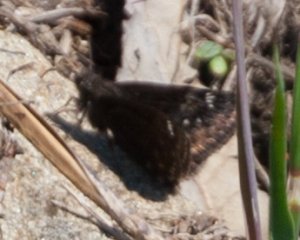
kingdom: Animalia
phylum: Arthropoda
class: Insecta
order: Lepidoptera
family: Hesperiidae
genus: Gesta
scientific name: Gesta
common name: Wild Indigo Duskywing
